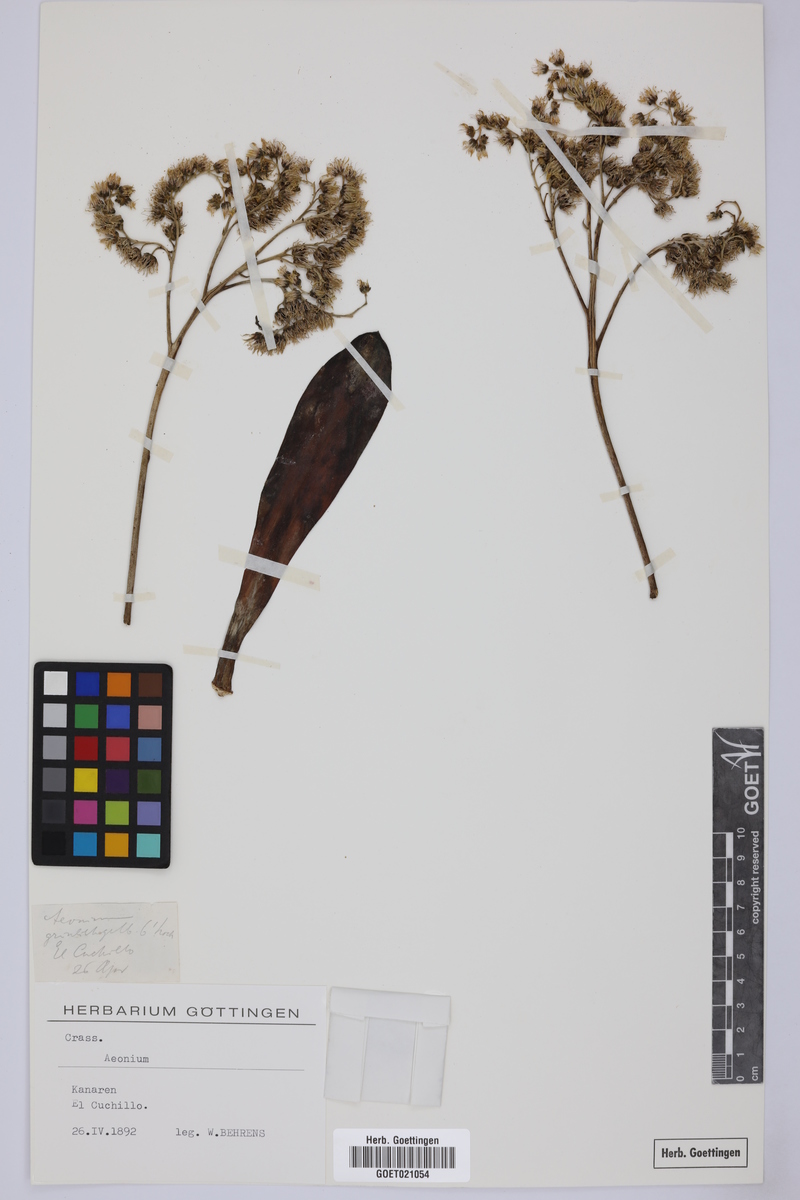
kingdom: Plantae
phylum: Tracheophyta
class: Magnoliopsida
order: Saxifragales
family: Crassulaceae
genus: Aeonium
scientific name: Aeonium
